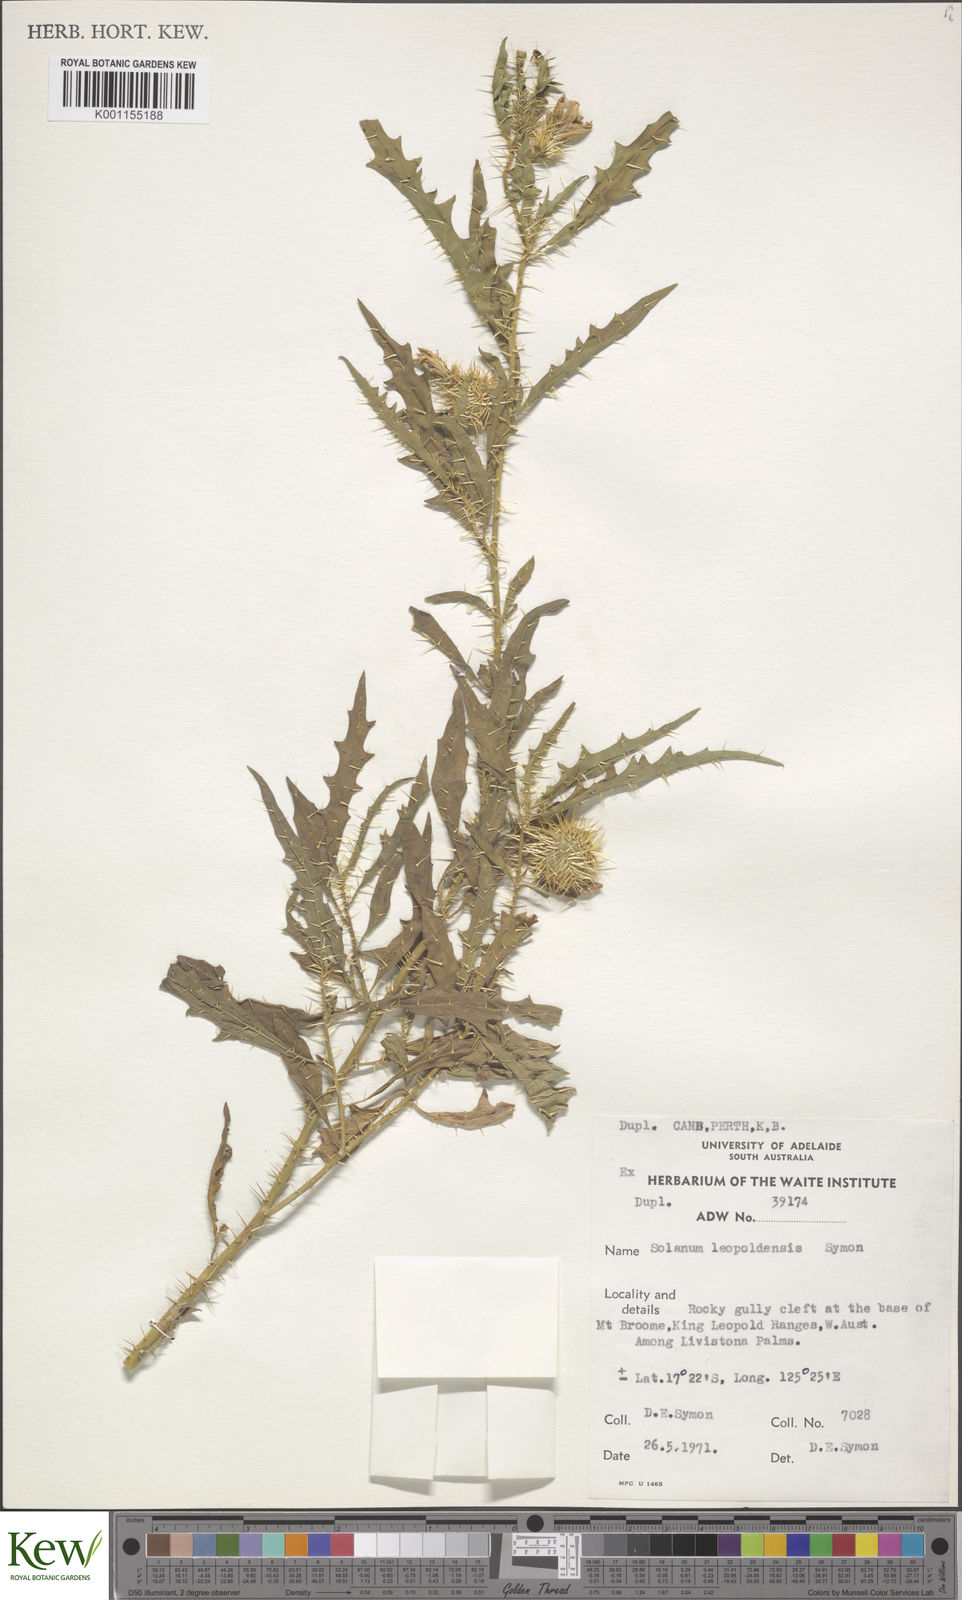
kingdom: Plantae
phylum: Tracheophyta
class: Magnoliopsida
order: Solanales
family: Solanaceae
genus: Solanum
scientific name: Solanum
